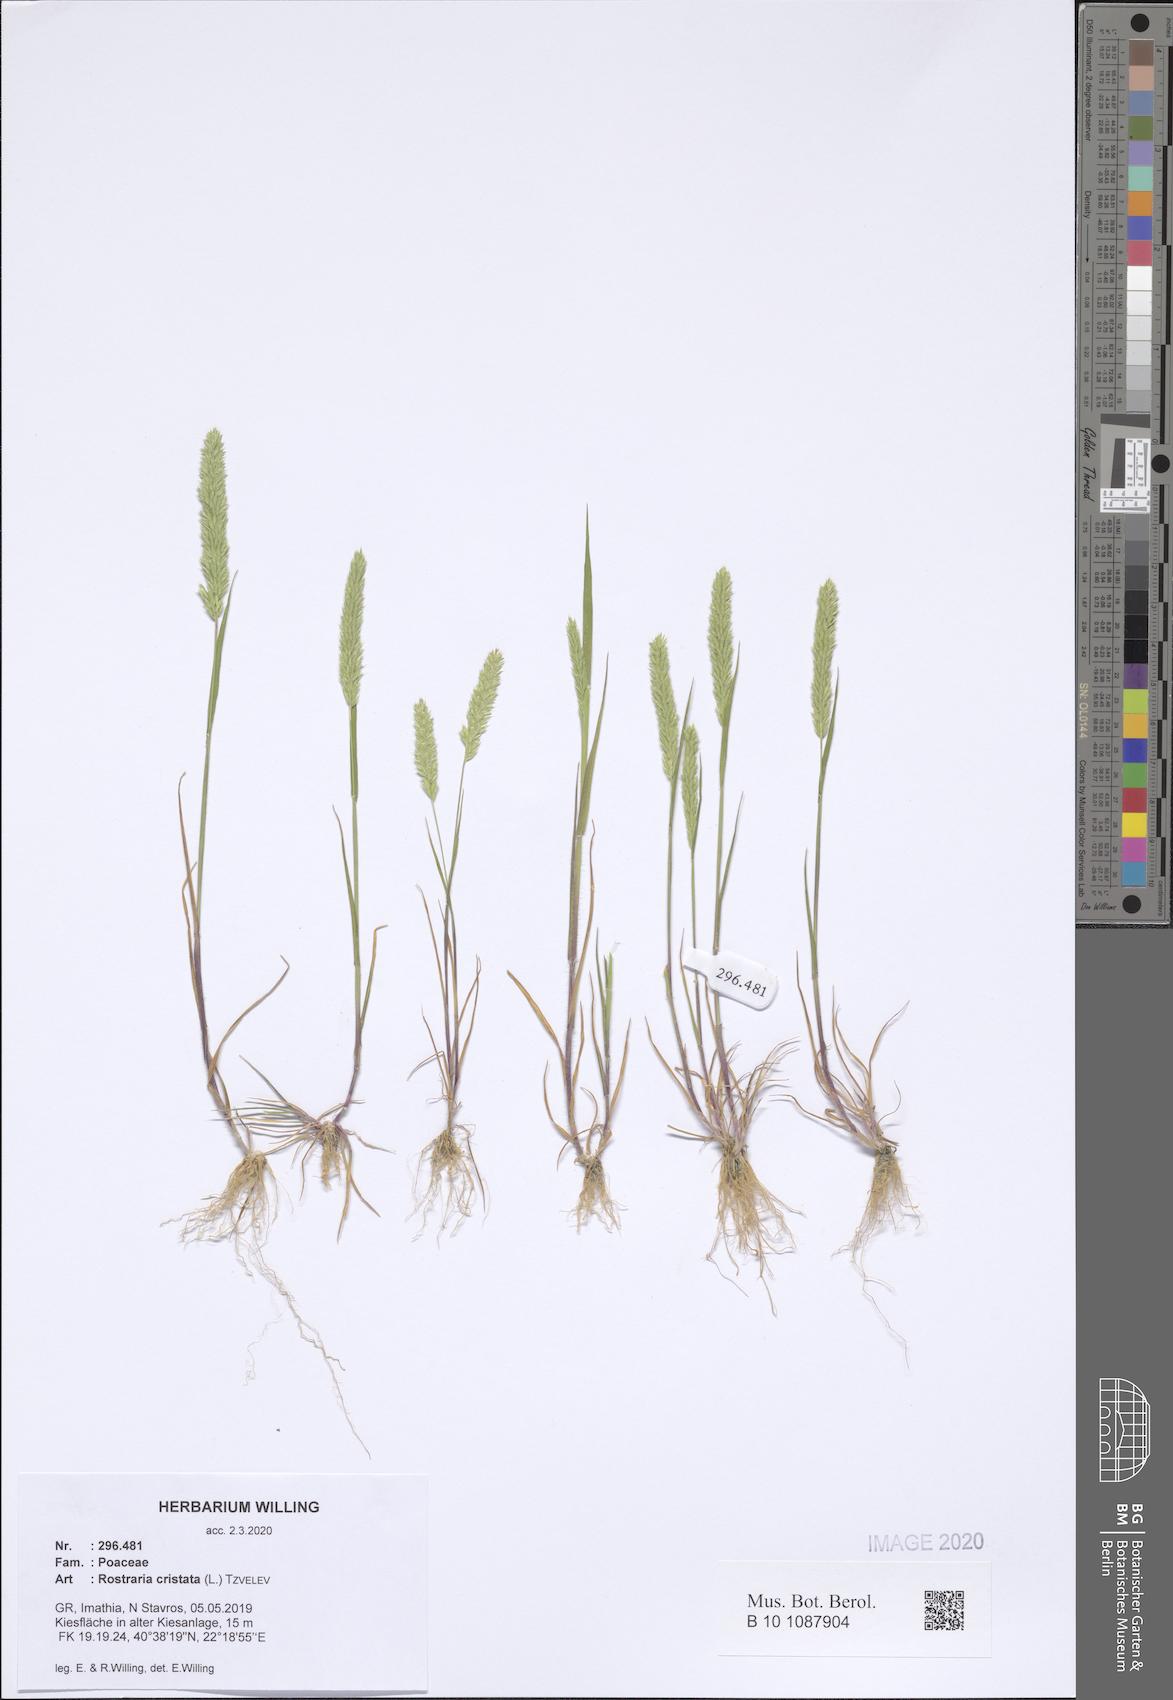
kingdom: Plantae
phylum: Tracheophyta
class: Liliopsida
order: Poales
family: Poaceae
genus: Rostraria
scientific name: Rostraria cristata
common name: Mediterranean hair-grass
